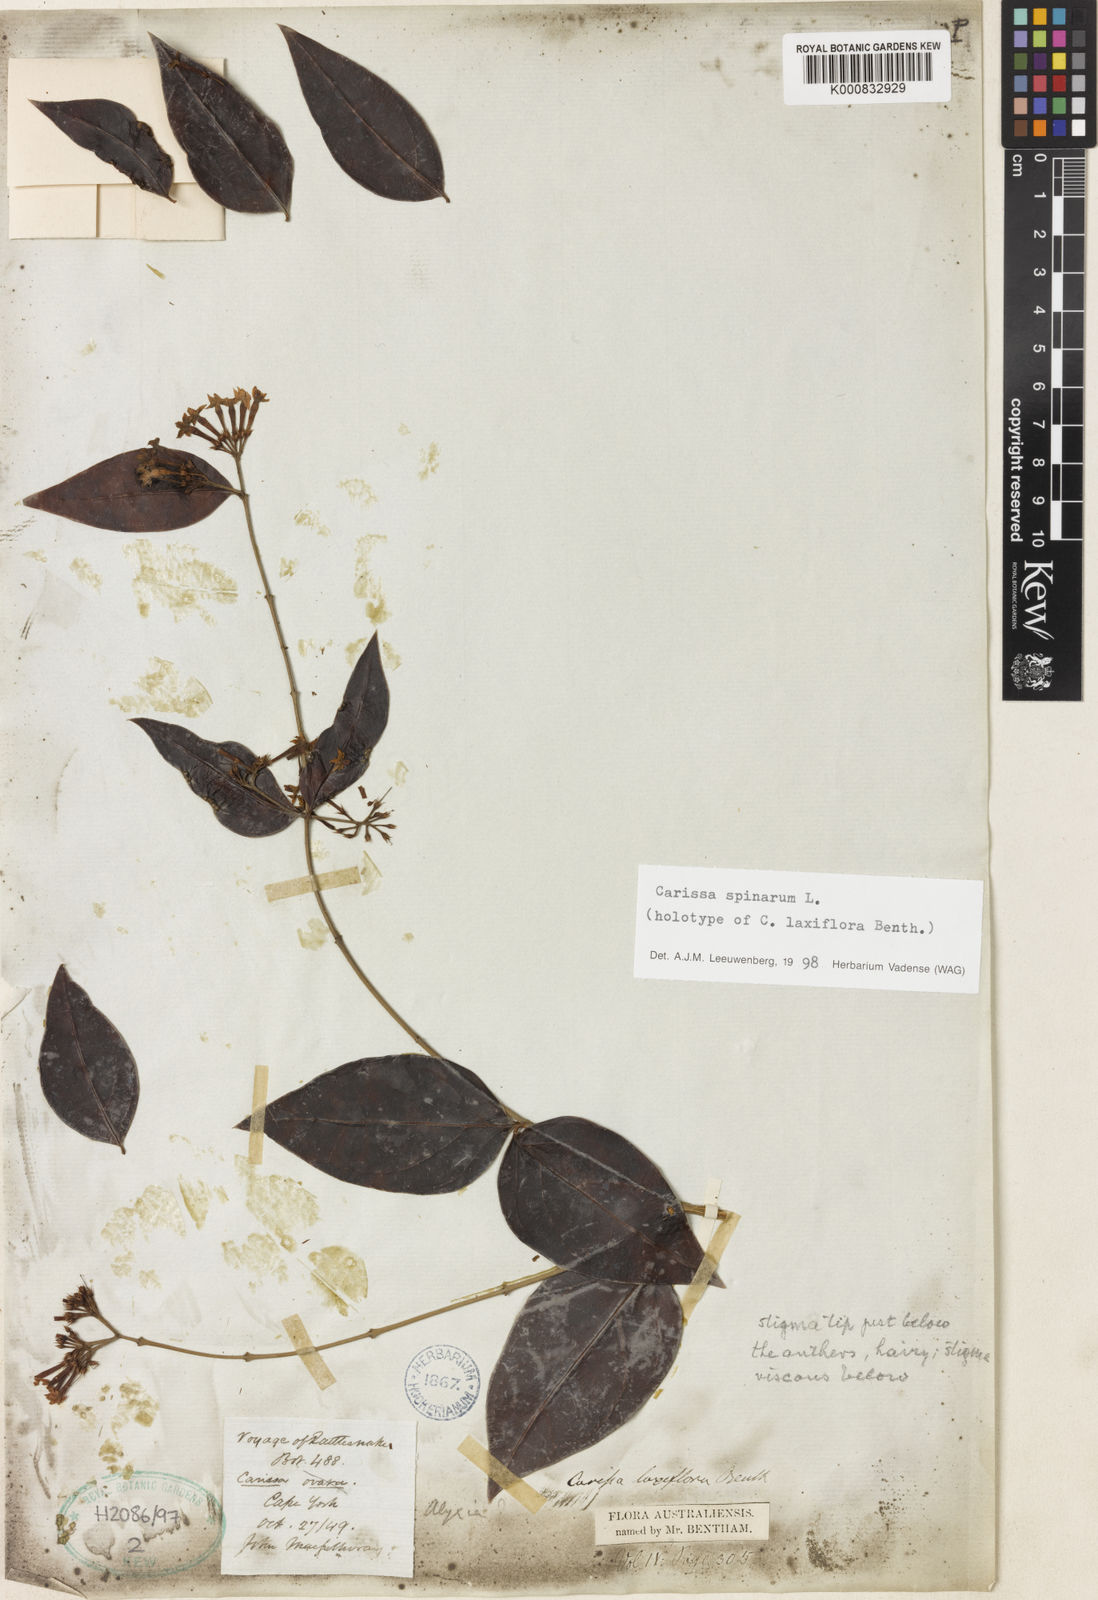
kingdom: Plantae
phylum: Tracheophyta
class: Magnoliopsida
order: Gentianales
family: Apocynaceae
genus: Carissa
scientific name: Carissa spinarum
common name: Egyptian carissa
